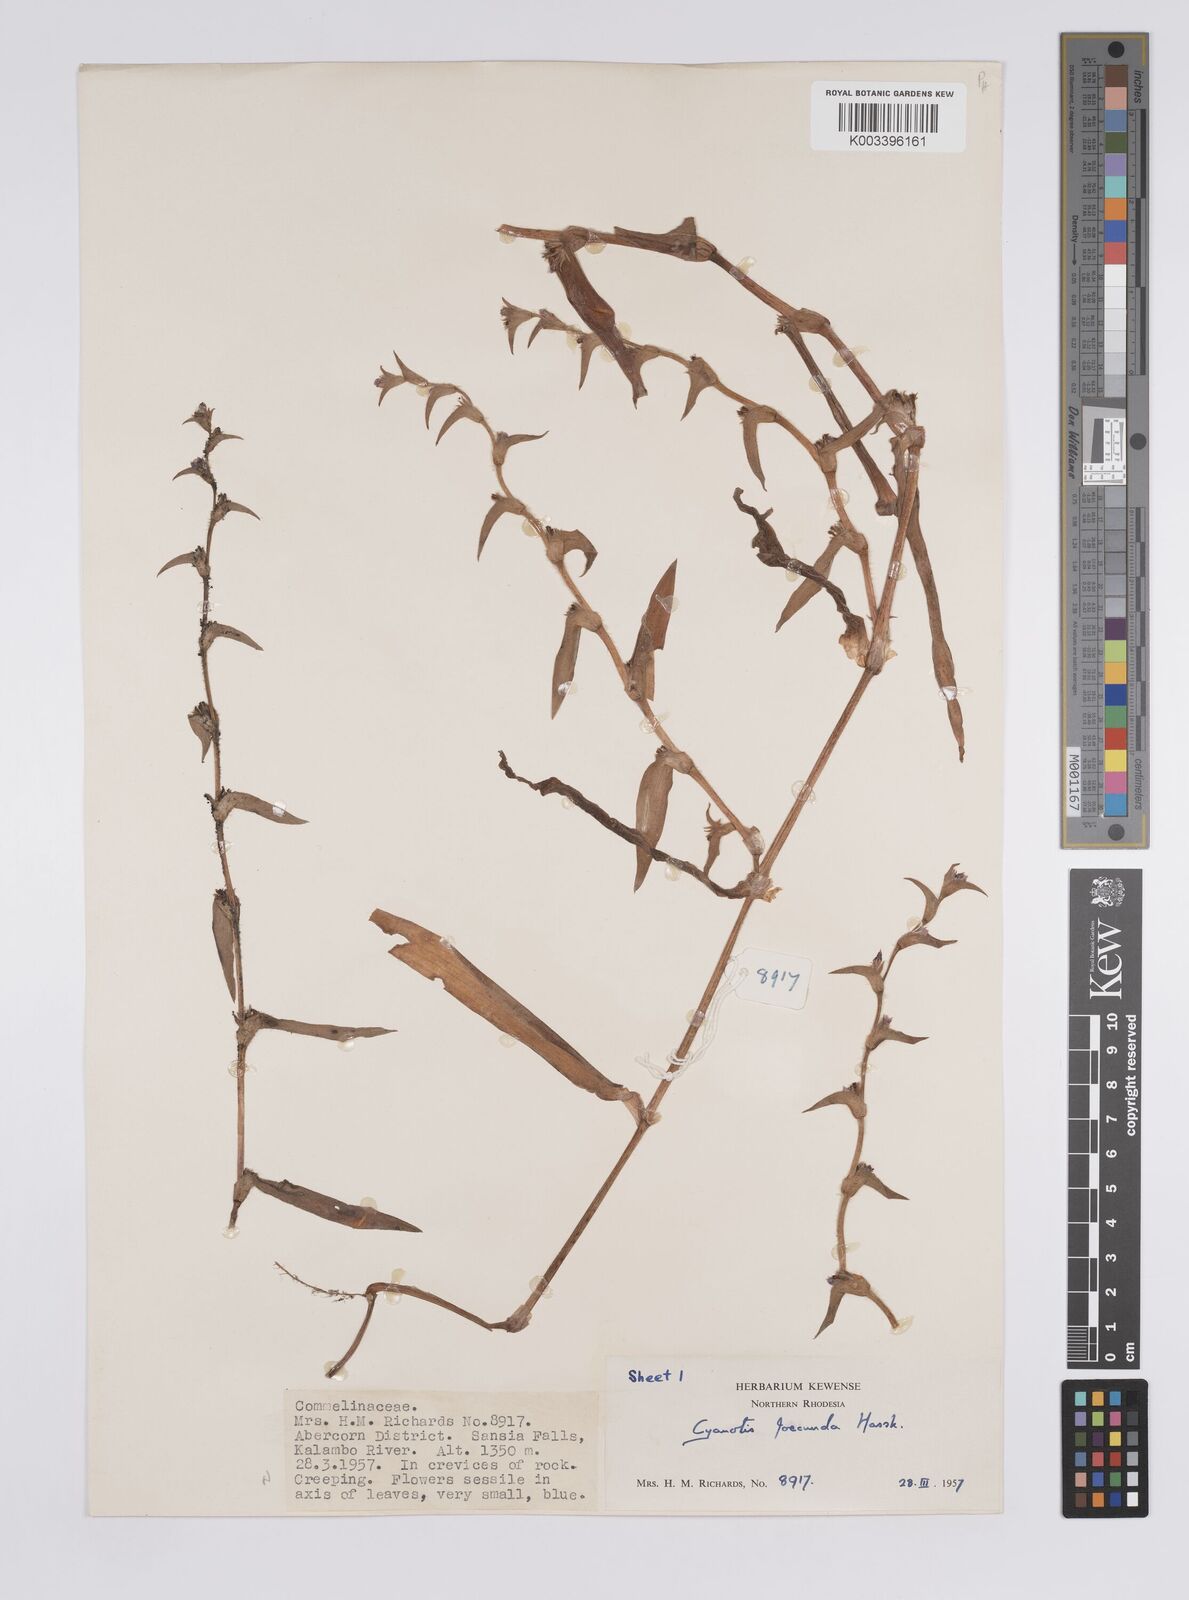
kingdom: Plantae
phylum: Tracheophyta
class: Liliopsida
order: Commelinales
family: Commelinaceae
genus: Cyanotis
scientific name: Cyanotis foecunda
